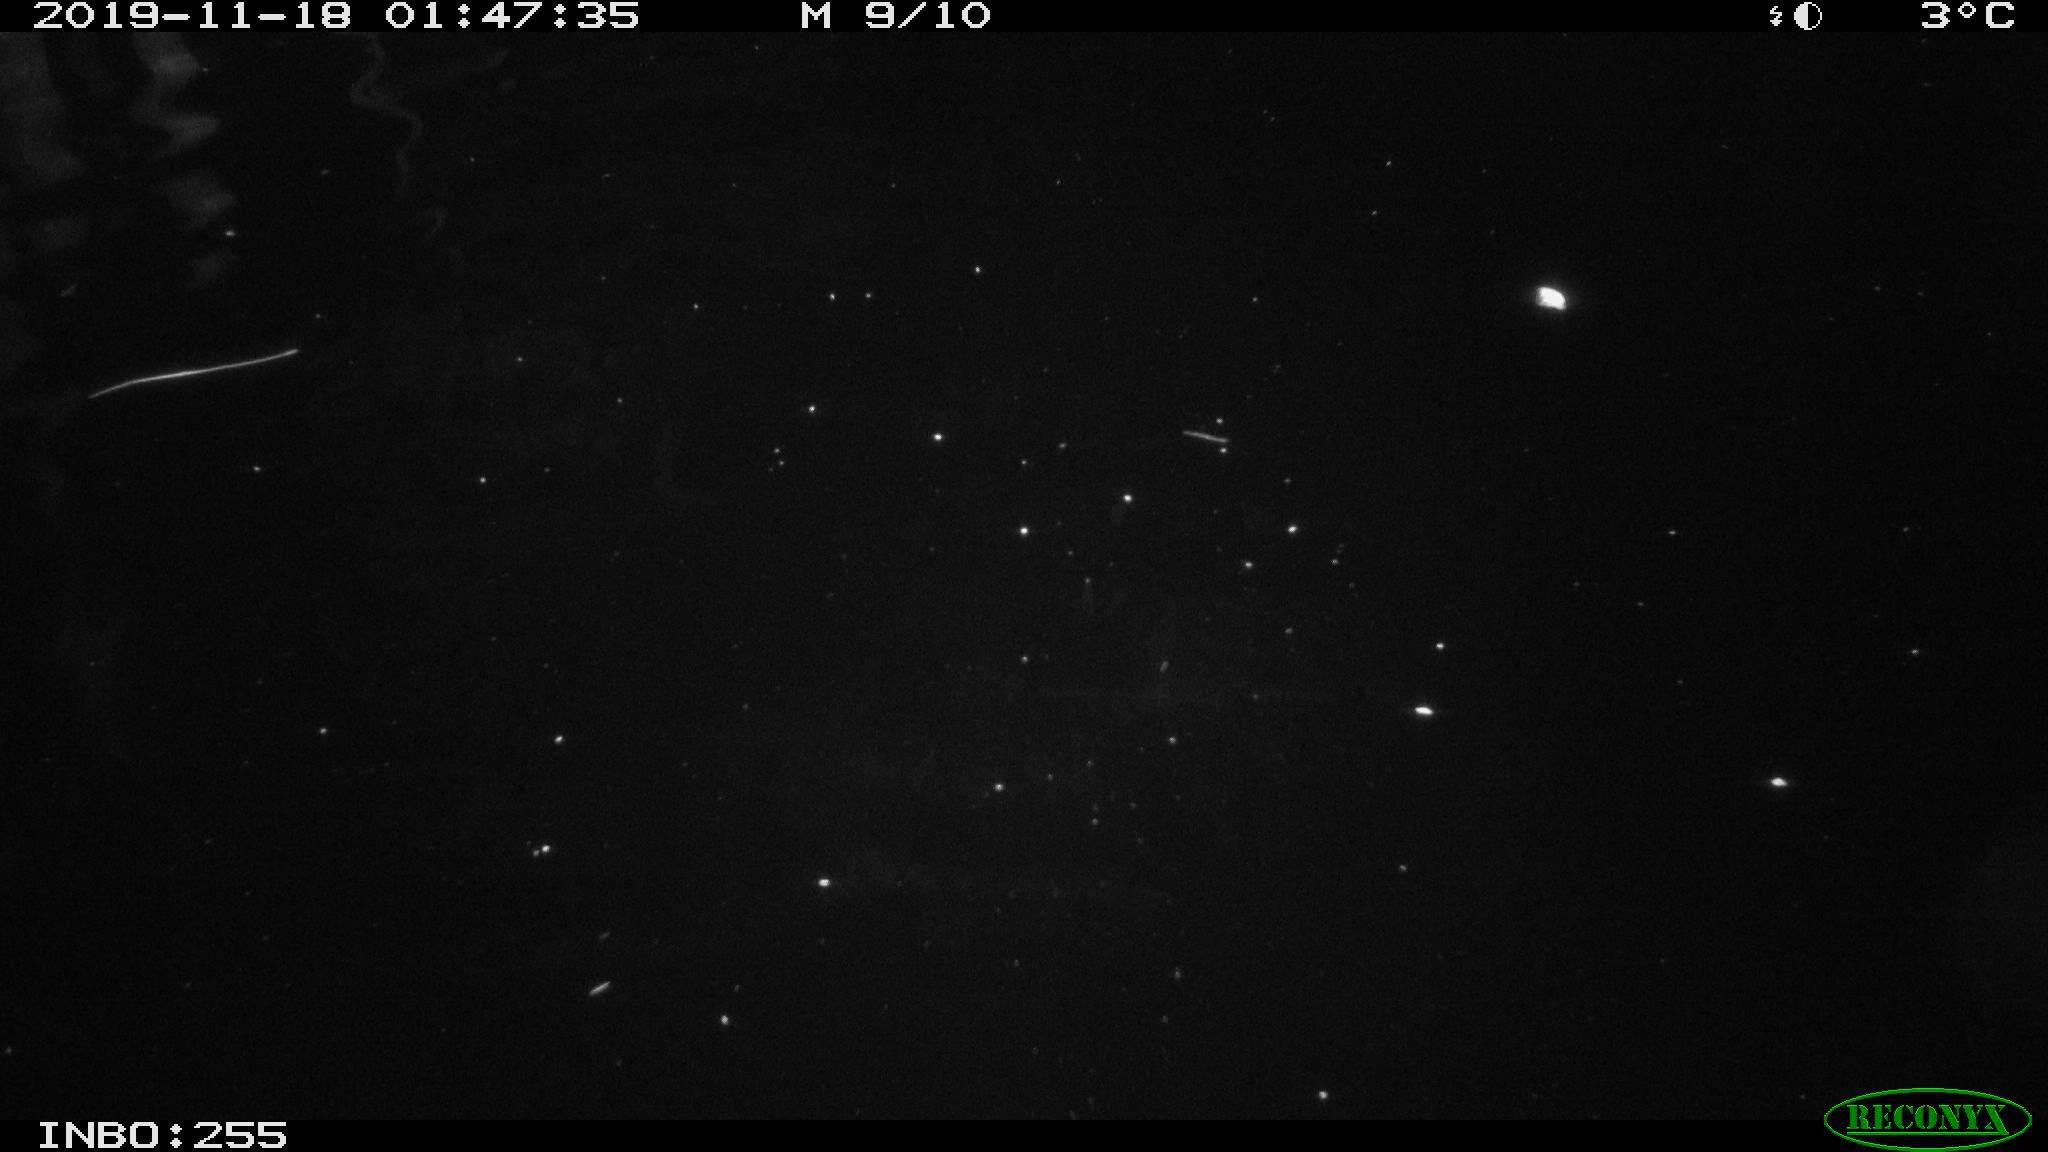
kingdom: Animalia
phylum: Chordata
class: Mammalia
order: Rodentia
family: Cricetidae
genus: Ondatra
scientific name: Ondatra zibethicus
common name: Muskrat
